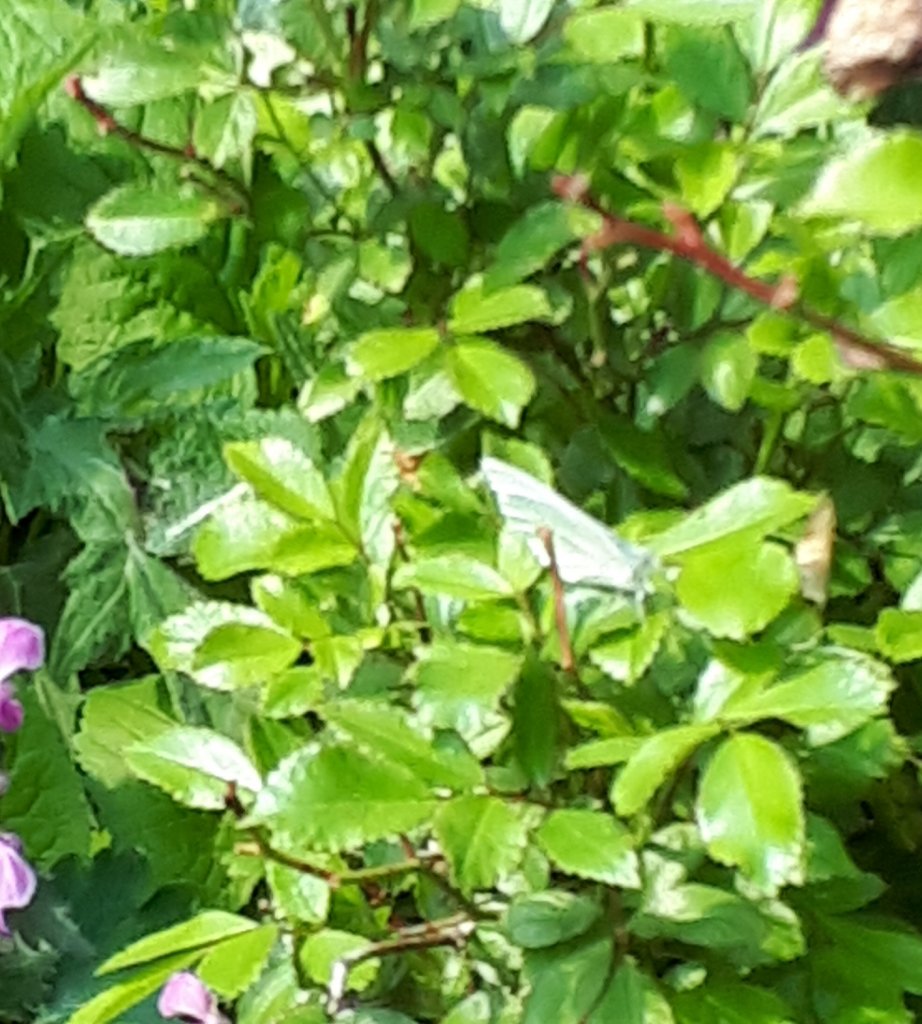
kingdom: Animalia
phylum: Arthropoda
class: Insecta
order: Lepidoptera
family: Pieridae
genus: Pieris
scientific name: Pieris rapae
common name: Cabbage White
